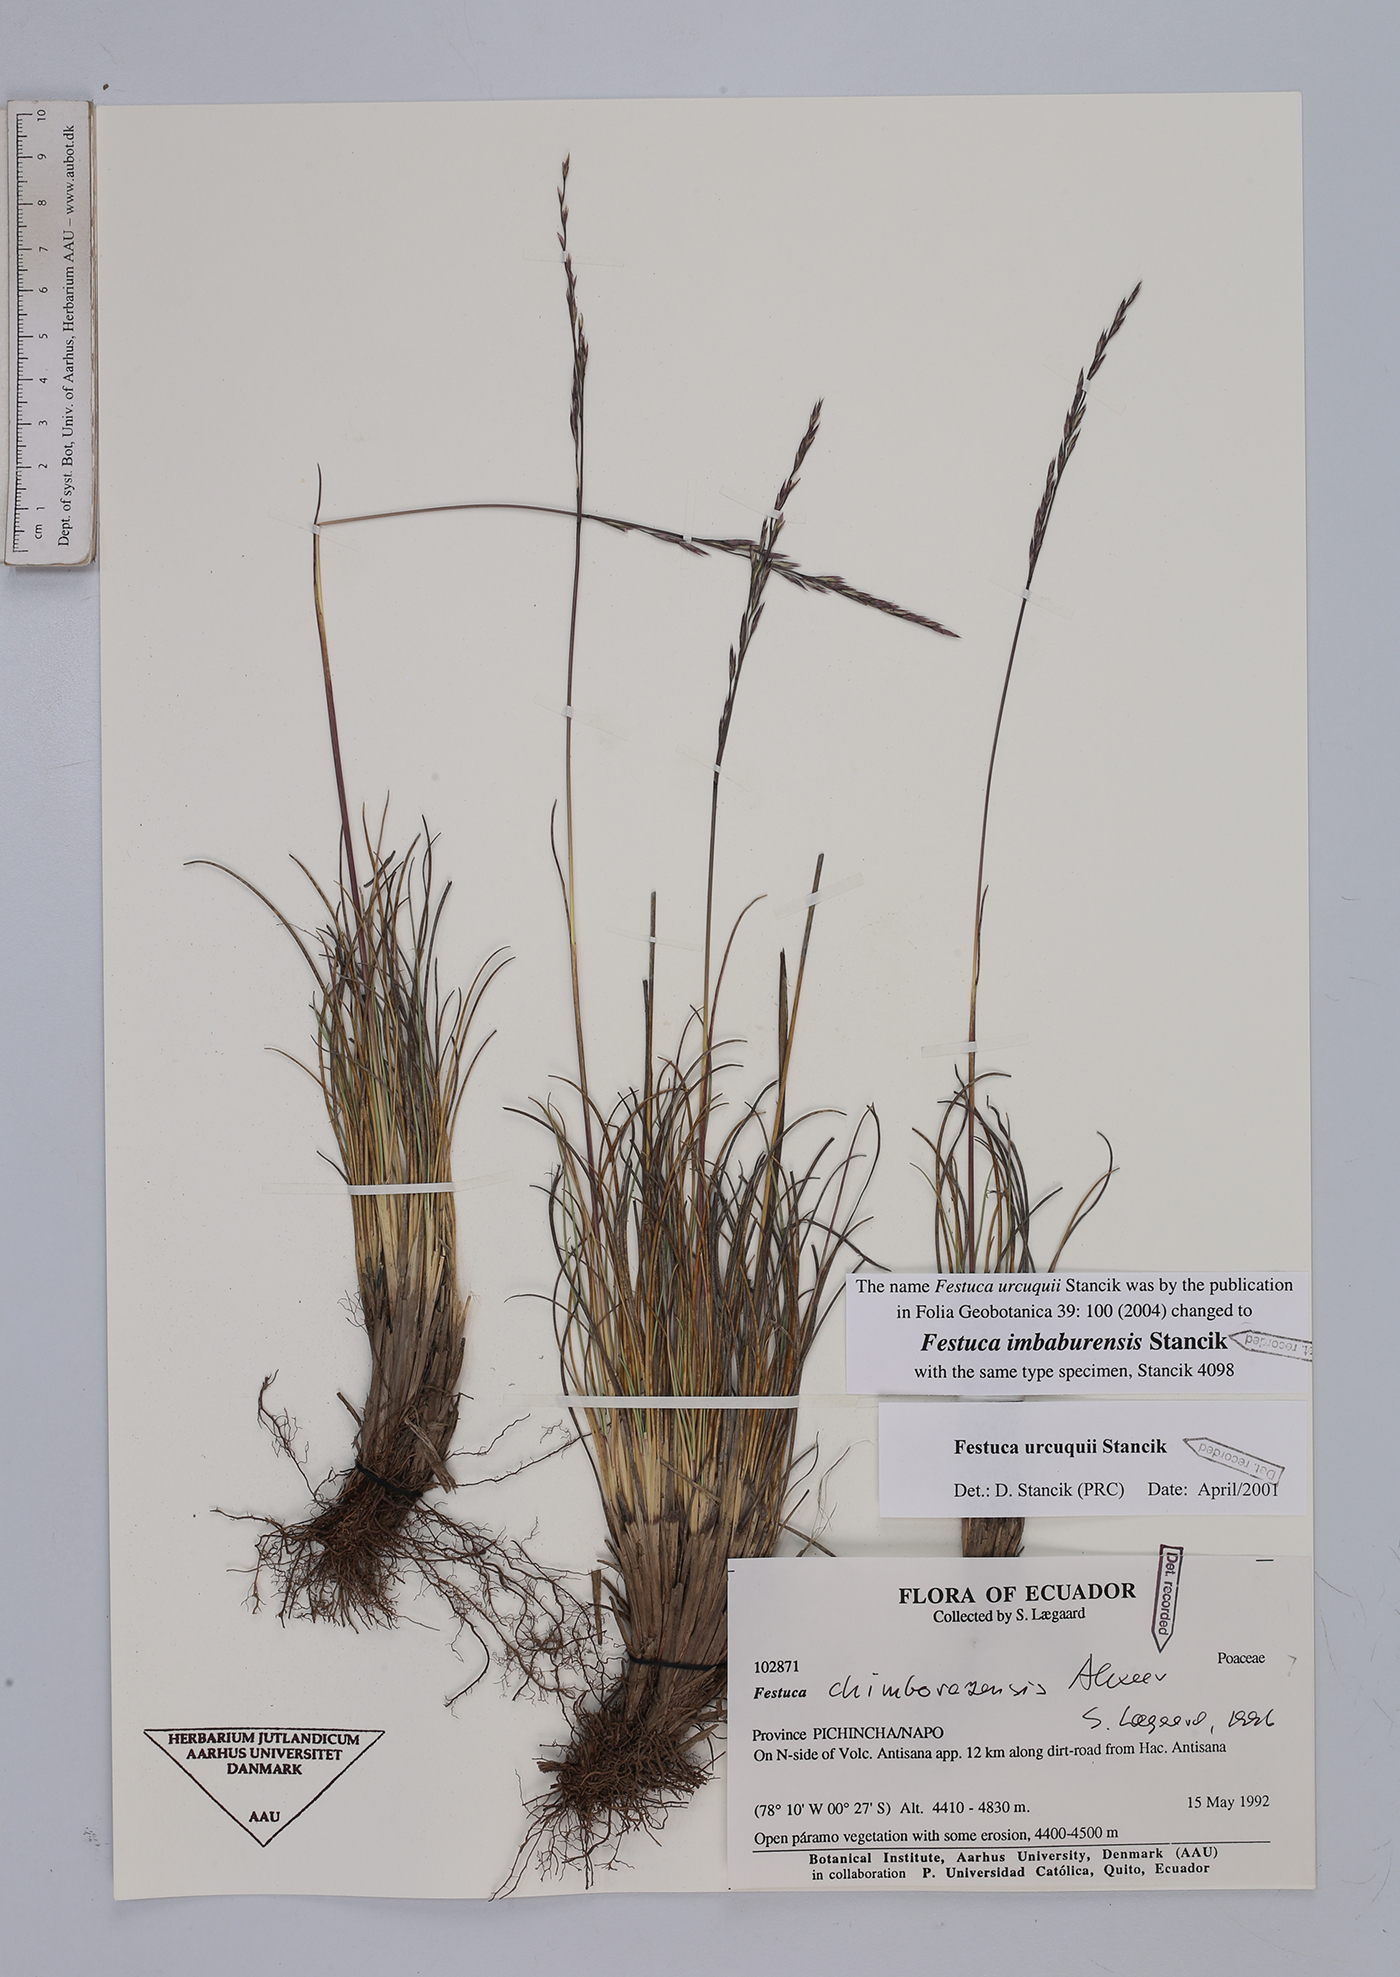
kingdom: Plantae
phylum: Tracheophyta
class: Liliopsida
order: Poales
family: Poaceae
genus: Festuca
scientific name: Festuca imbaburensis
